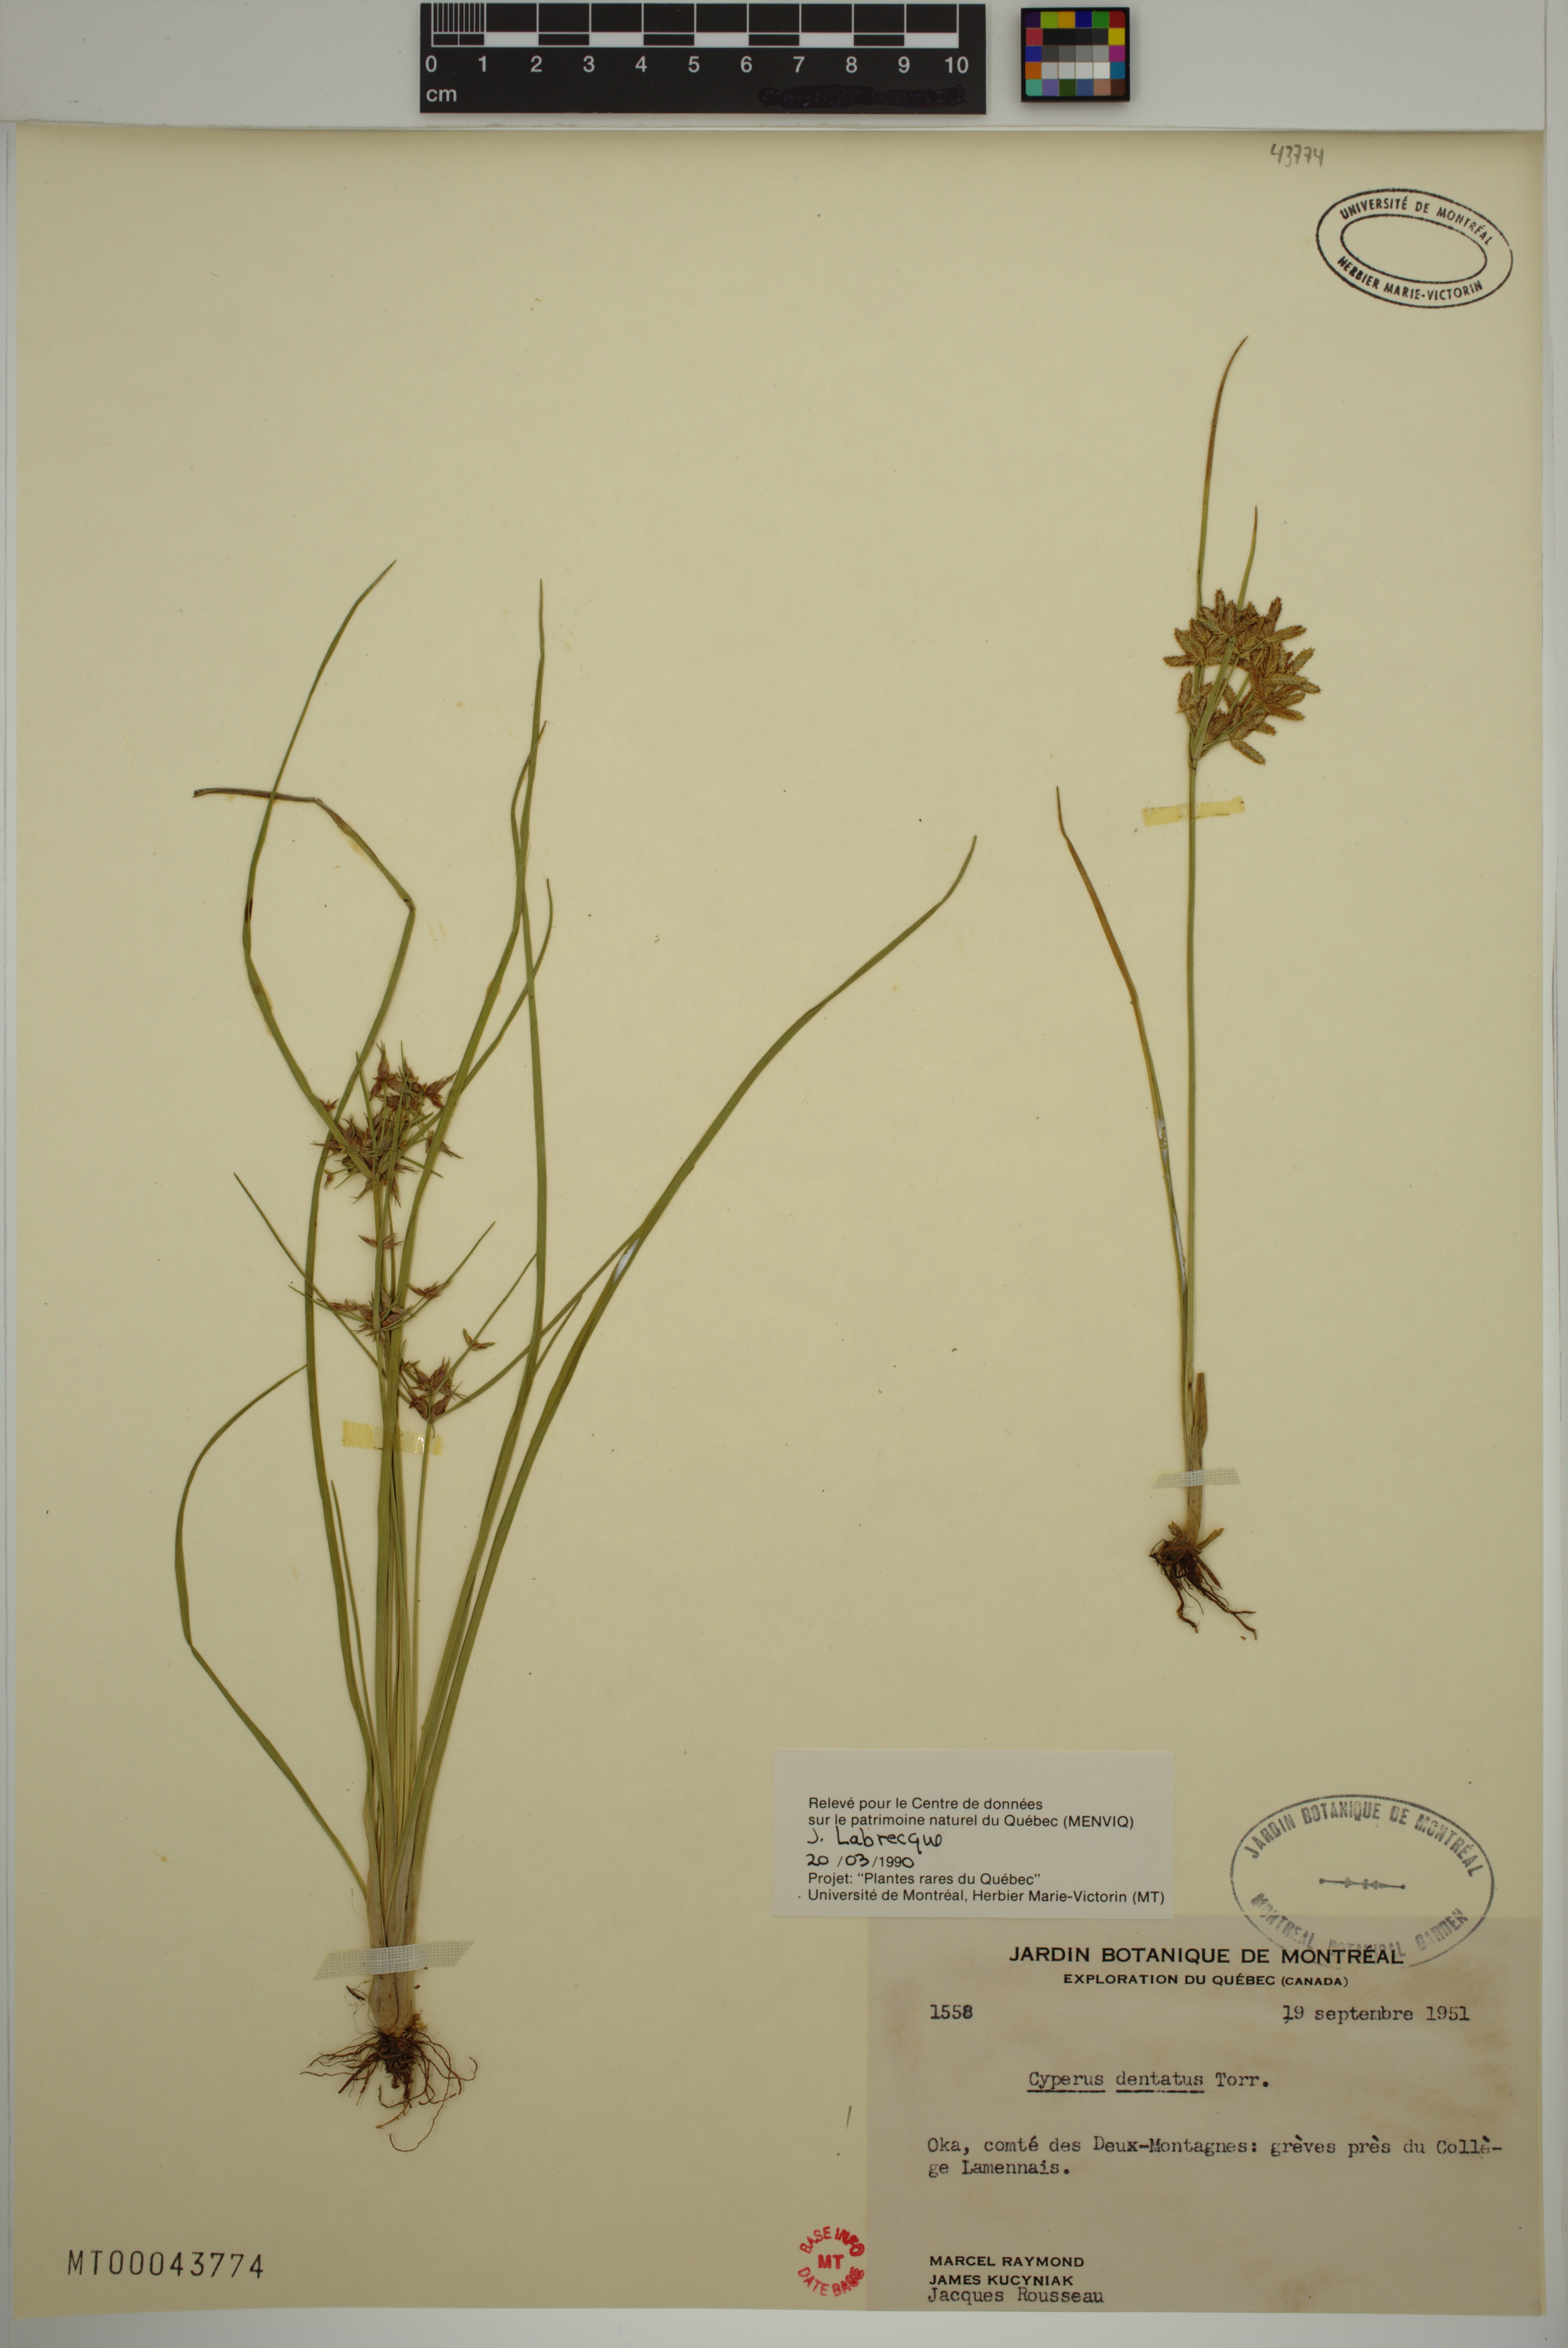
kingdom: Plantae
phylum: Tracheophyta
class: Liliopsida
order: Poales
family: Cyperaceae
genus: Cyperus
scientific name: Cyperus dentatus
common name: Dentate umbrella sedge
